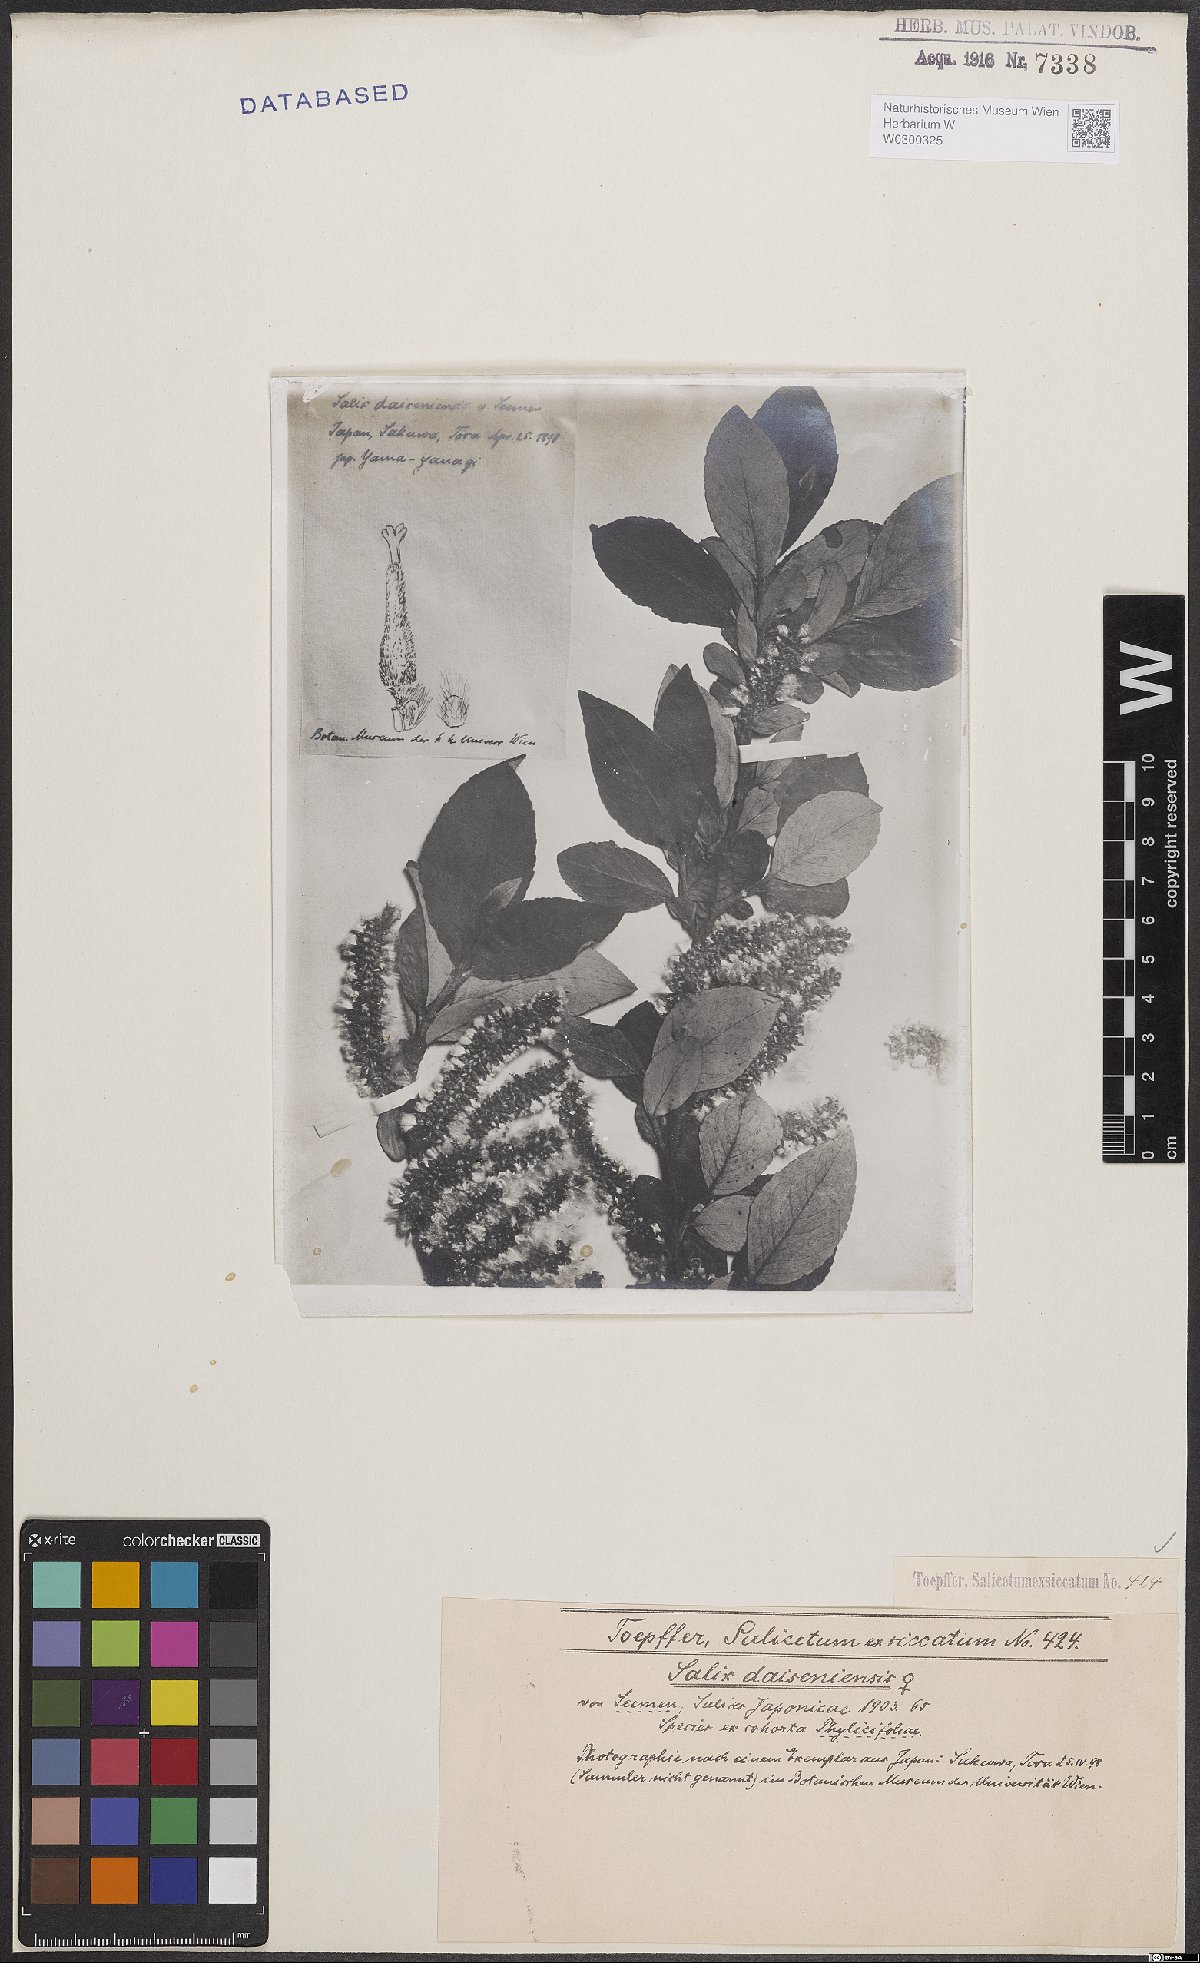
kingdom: Plantae
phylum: Tracheophyta
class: Magnoliopsida
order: Malpighiales
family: Salicaceae
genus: Salix
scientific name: Salix sieboldiana
